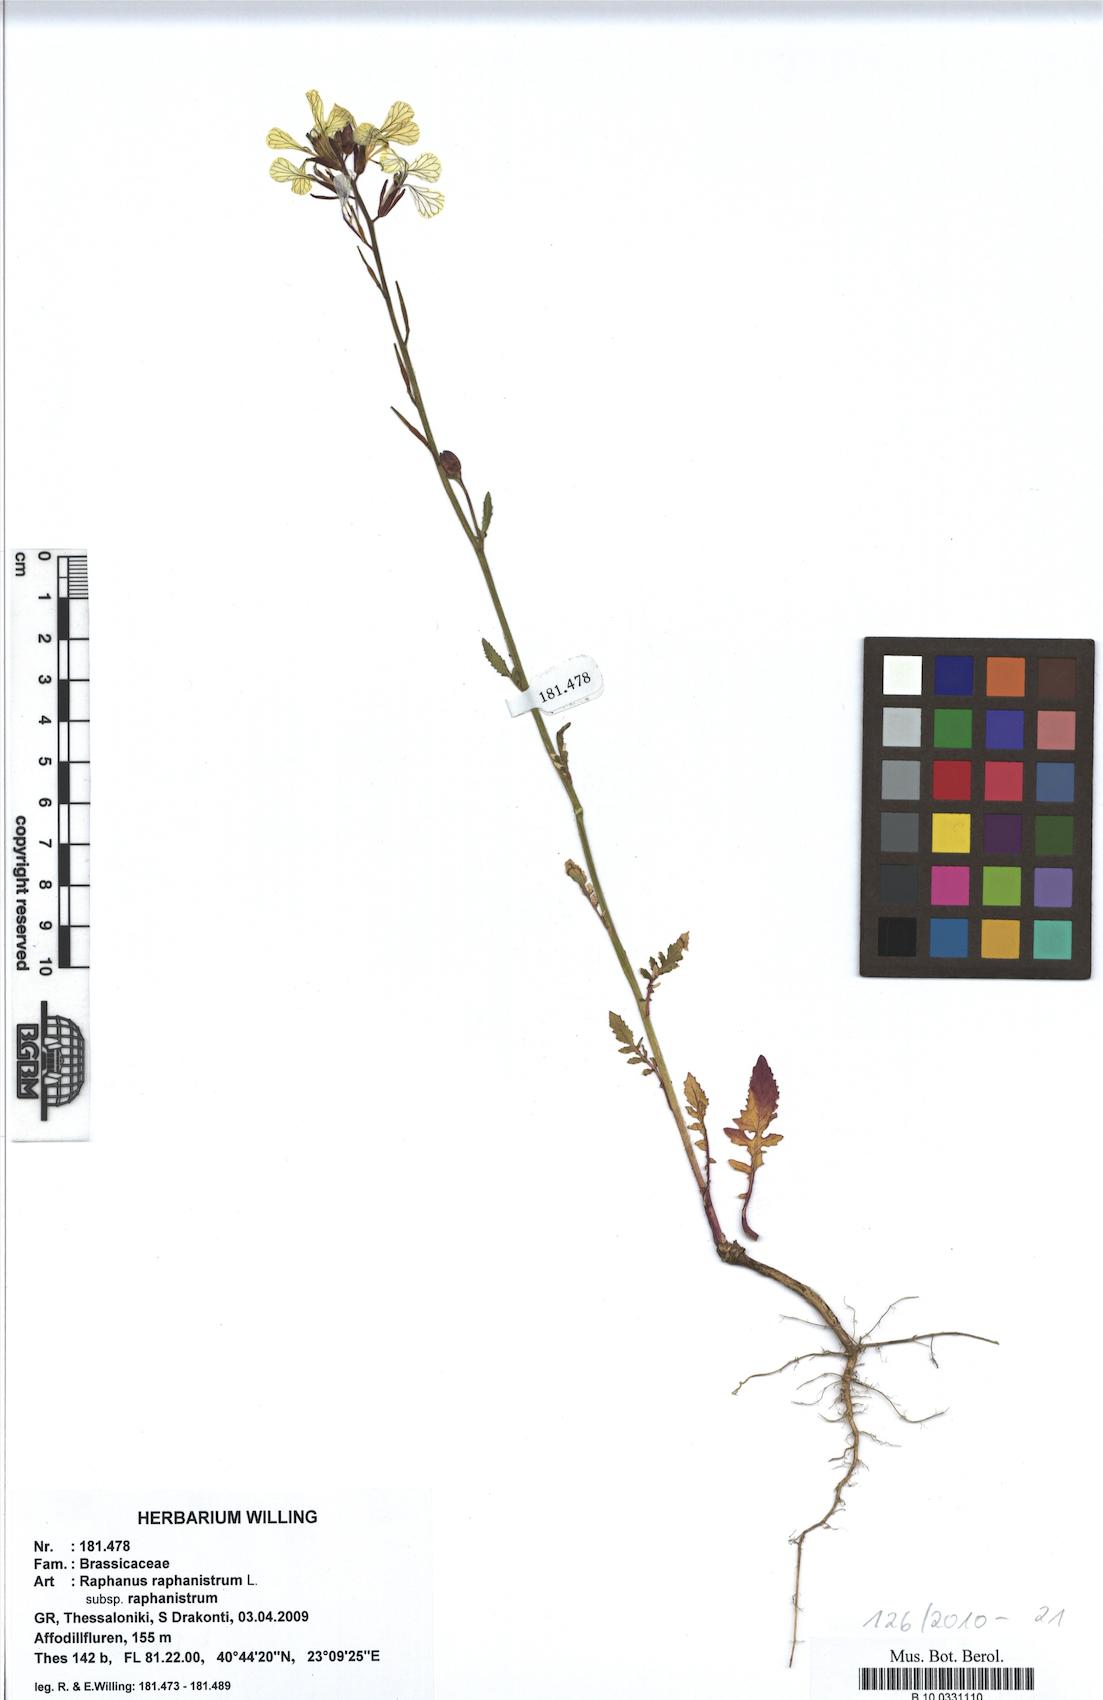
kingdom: Plantae
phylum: Tracheophyta
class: Magnoliopsida
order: Brassicales
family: Brassicaceae
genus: Raphanus
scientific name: Raphanus raphanistrum
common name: Wild radish
